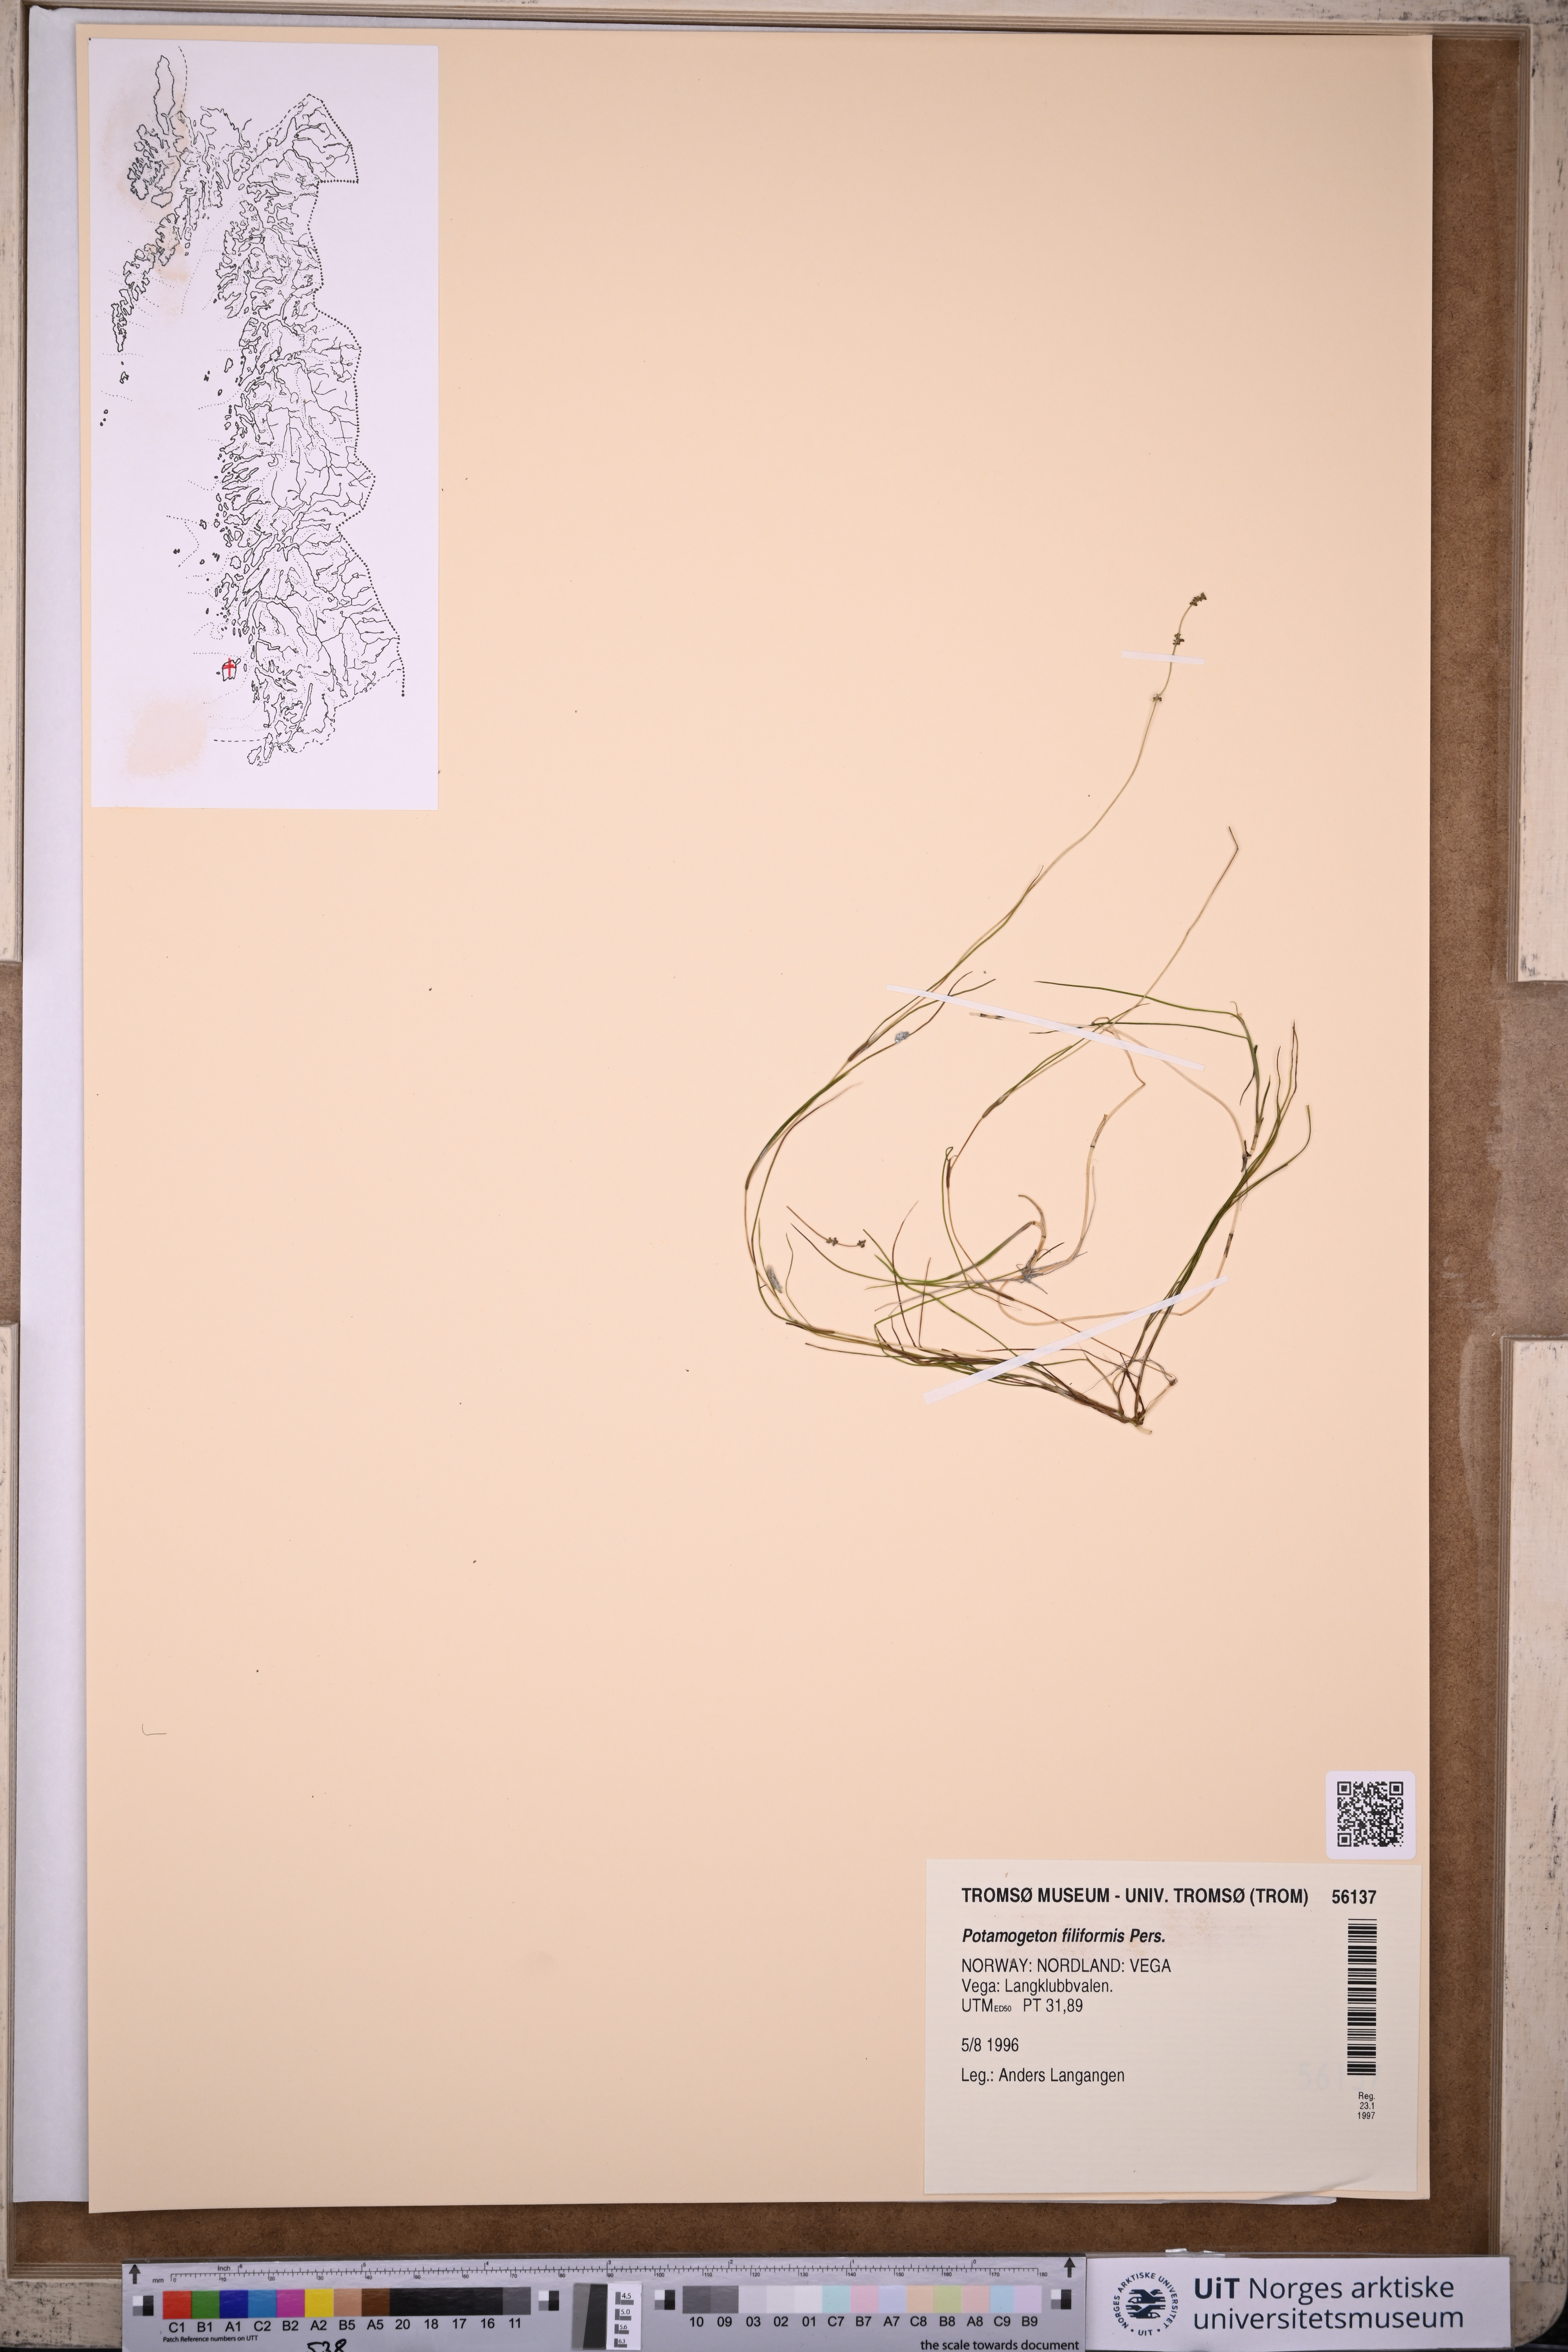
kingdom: Plantae
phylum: Tracheophyta
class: Liliopsida
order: Alismatales
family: Potamogetonaceae
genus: Stuckenia
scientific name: Stuckenia filiformis
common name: Alpine thread-leaved pondweed
